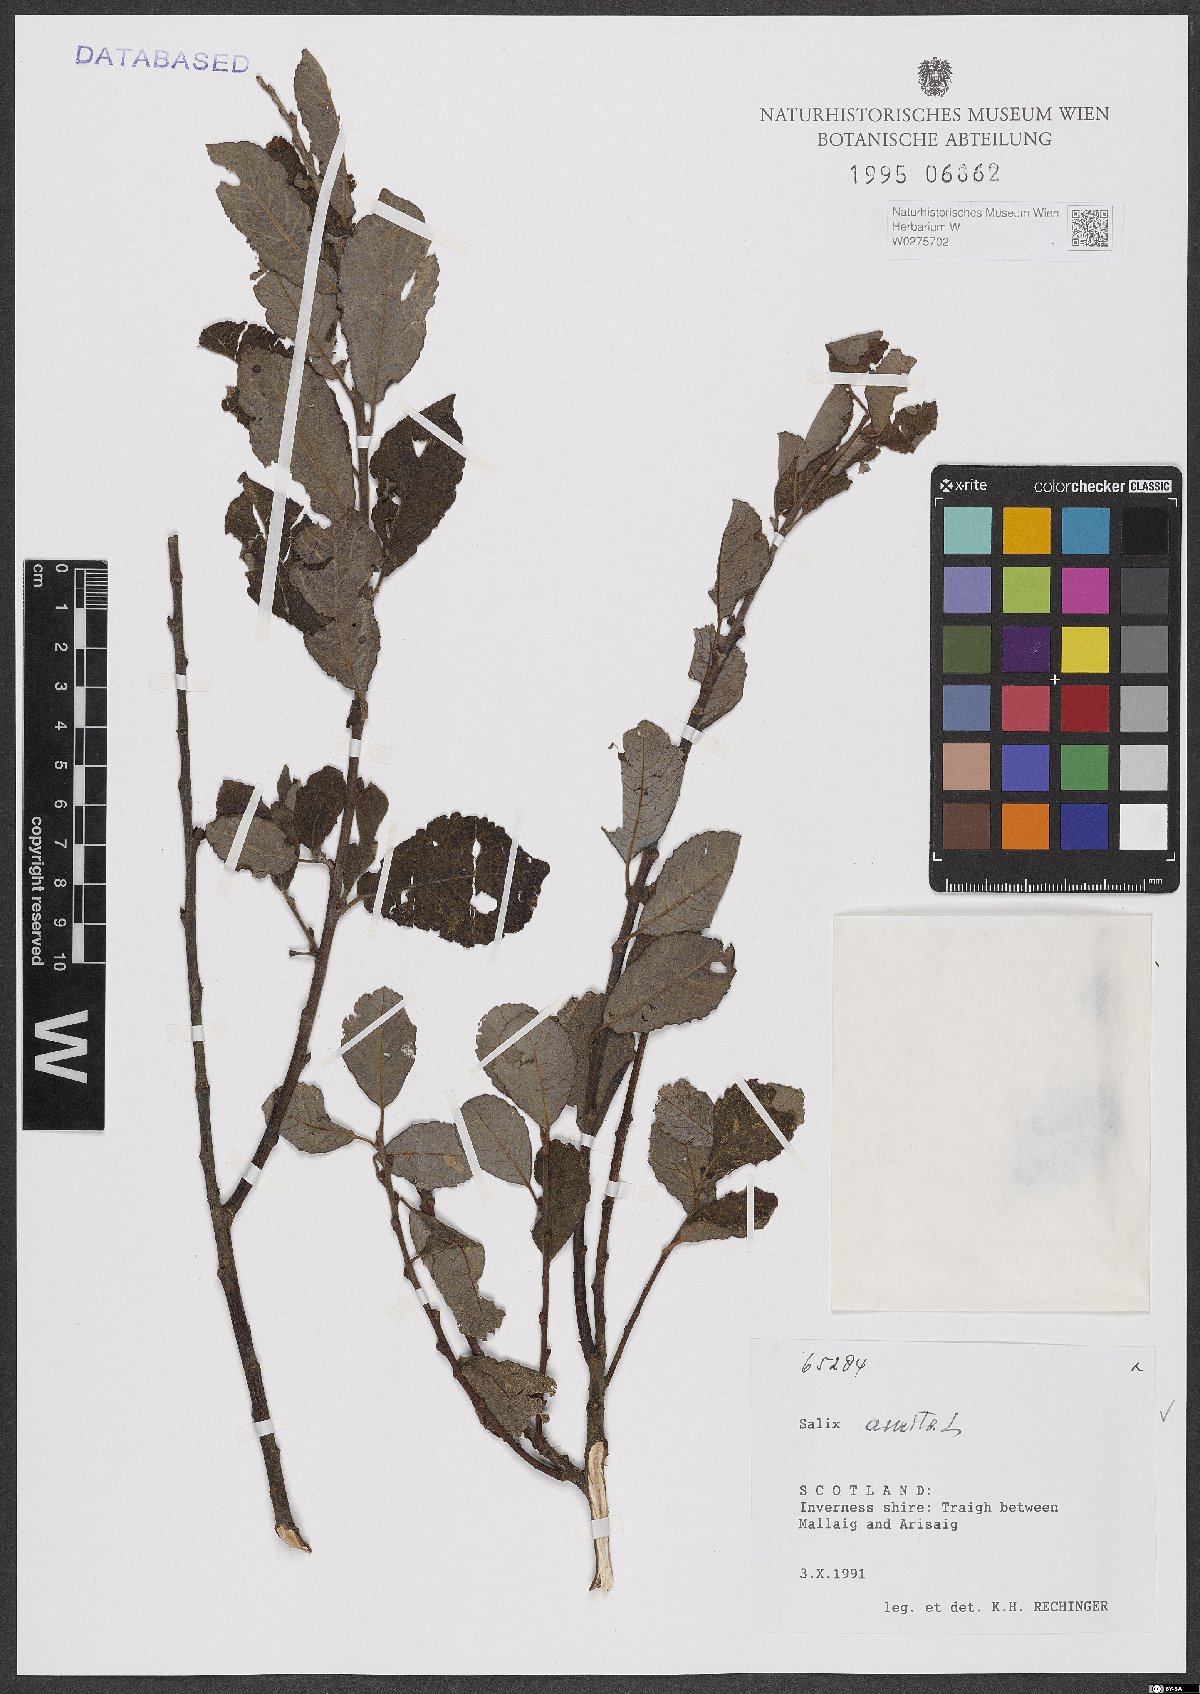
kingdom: Plantae
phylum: Tracheophyta
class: Magnoliopsida
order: Malpighiales
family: Salicaceae
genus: Salix
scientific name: Salix aurita
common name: Eared willow
